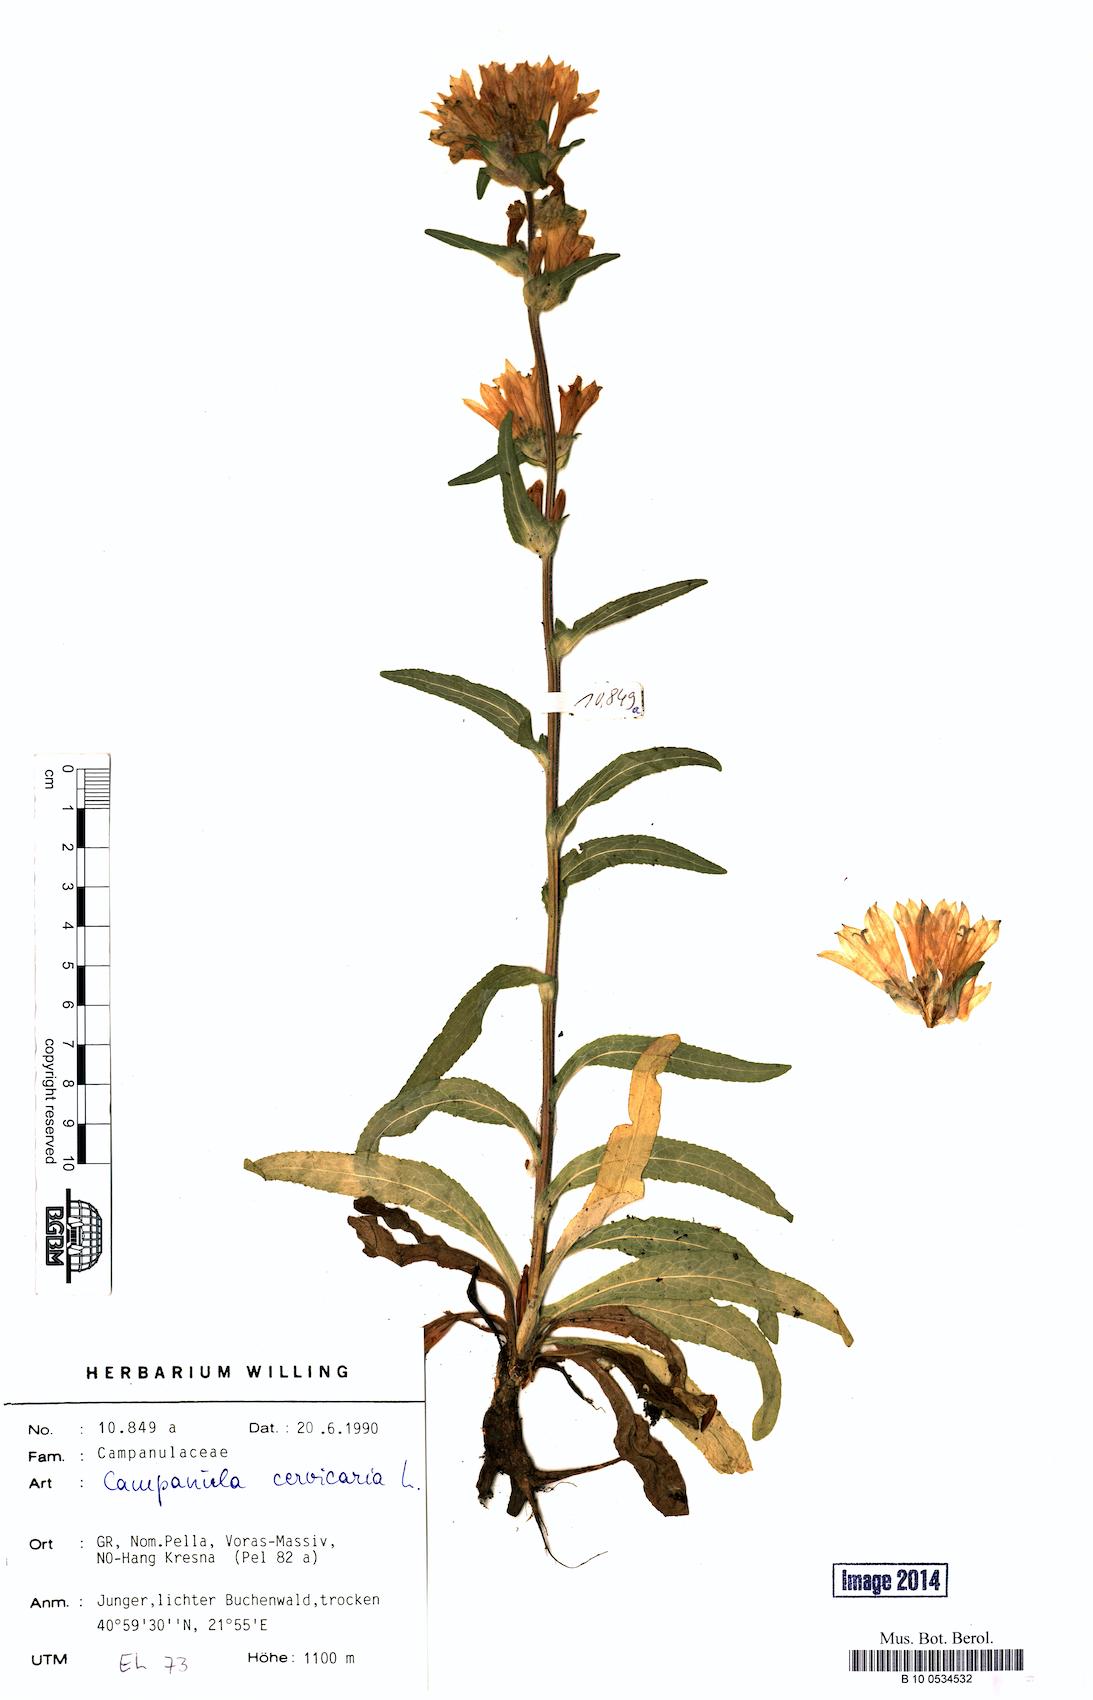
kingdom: Plantae
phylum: Tracheophyta
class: Magnoliopsida
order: Asterales
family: Campanulaceae
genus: Campanula
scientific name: Campanula cervicaria
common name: Bristly bellflower
